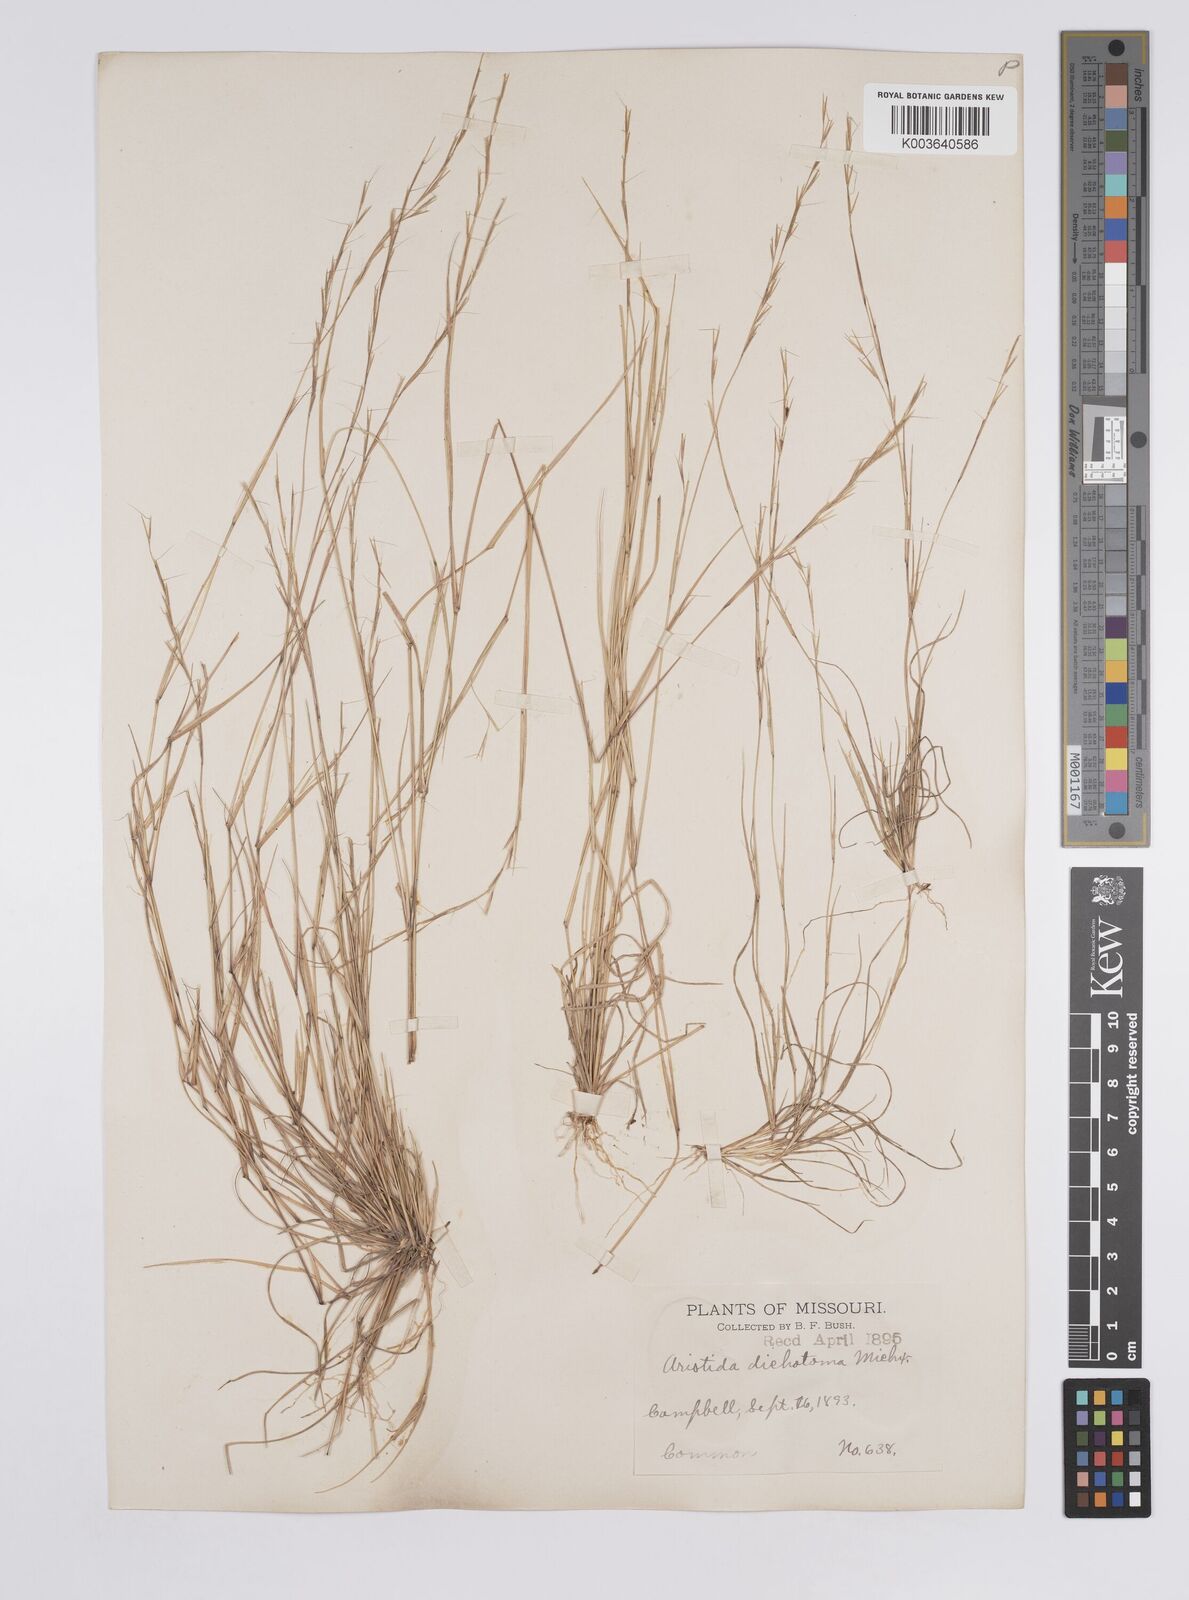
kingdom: Plantae
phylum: Tracheophyta
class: Liliopsida
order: Poales
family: Poaceae
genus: Aristida
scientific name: Aristida dichotoma
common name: Churchmouse three-awn
